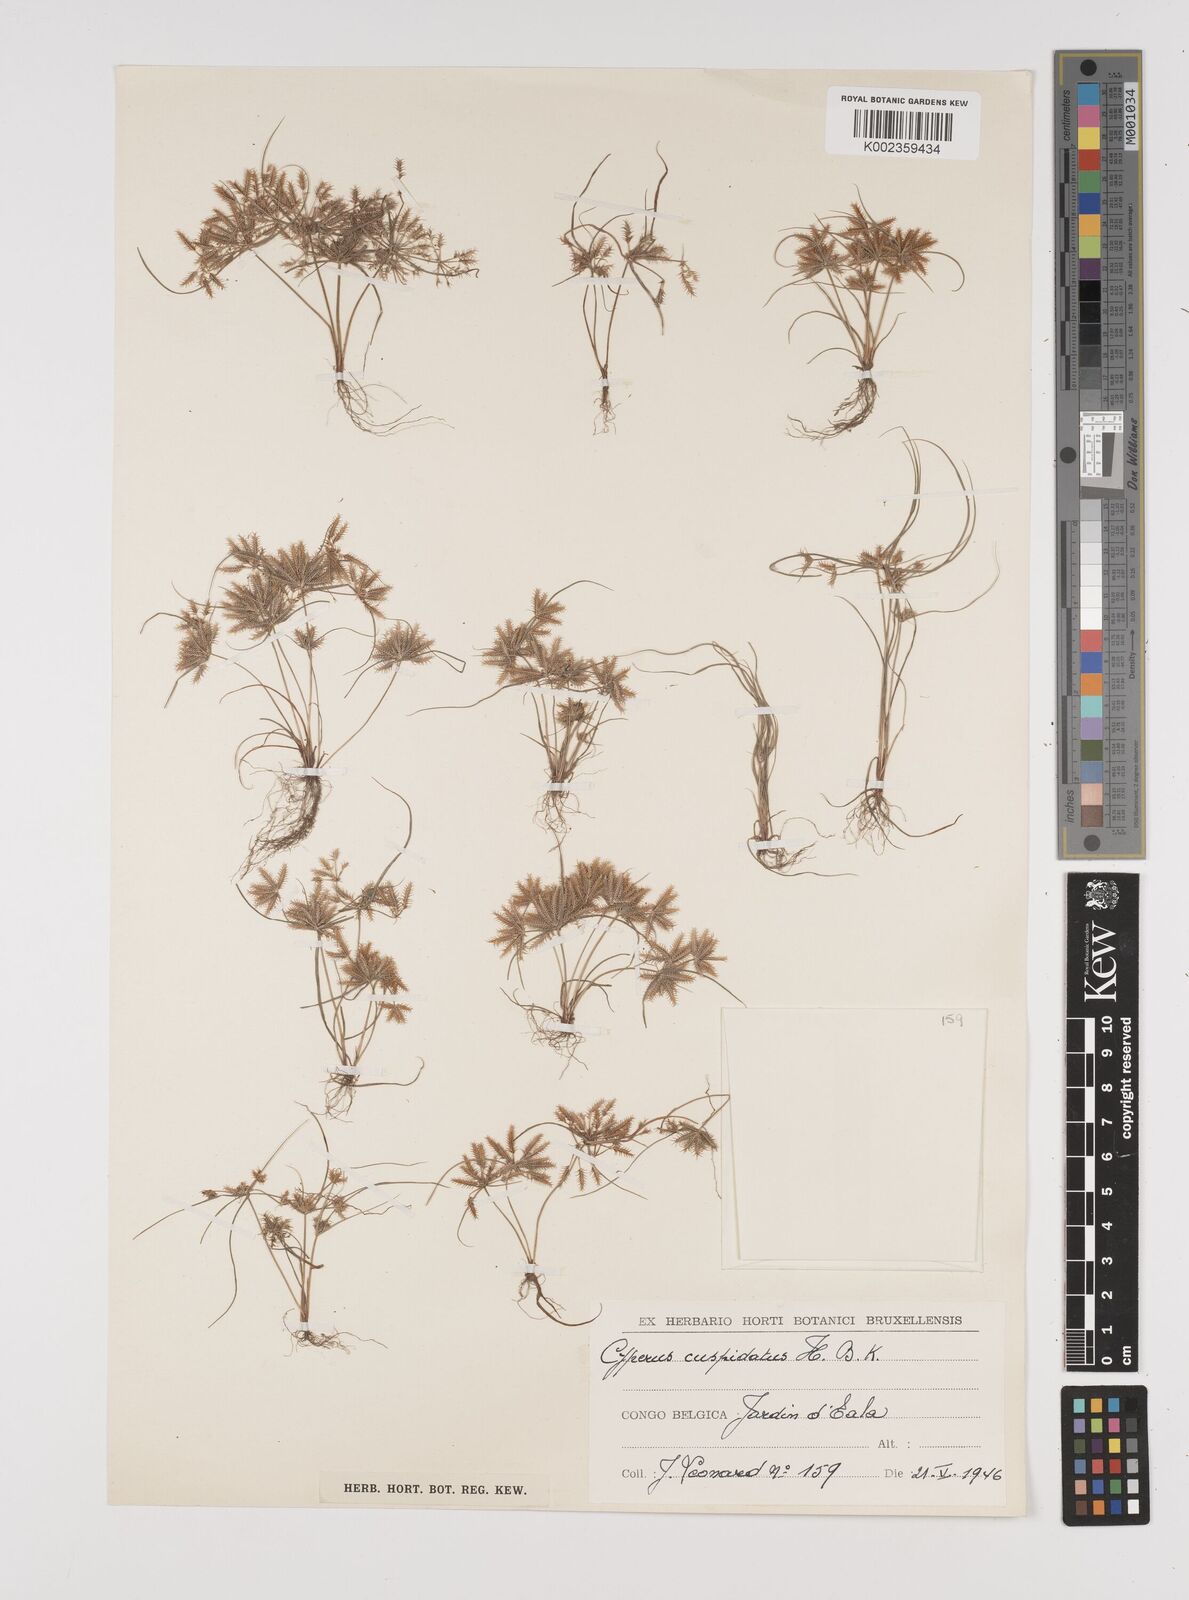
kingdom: Plantae
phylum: Tracheophyta
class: Liliopsida
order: Poales
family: Cyperaceae
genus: Cyperus
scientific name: Cyperus cuspidatus
